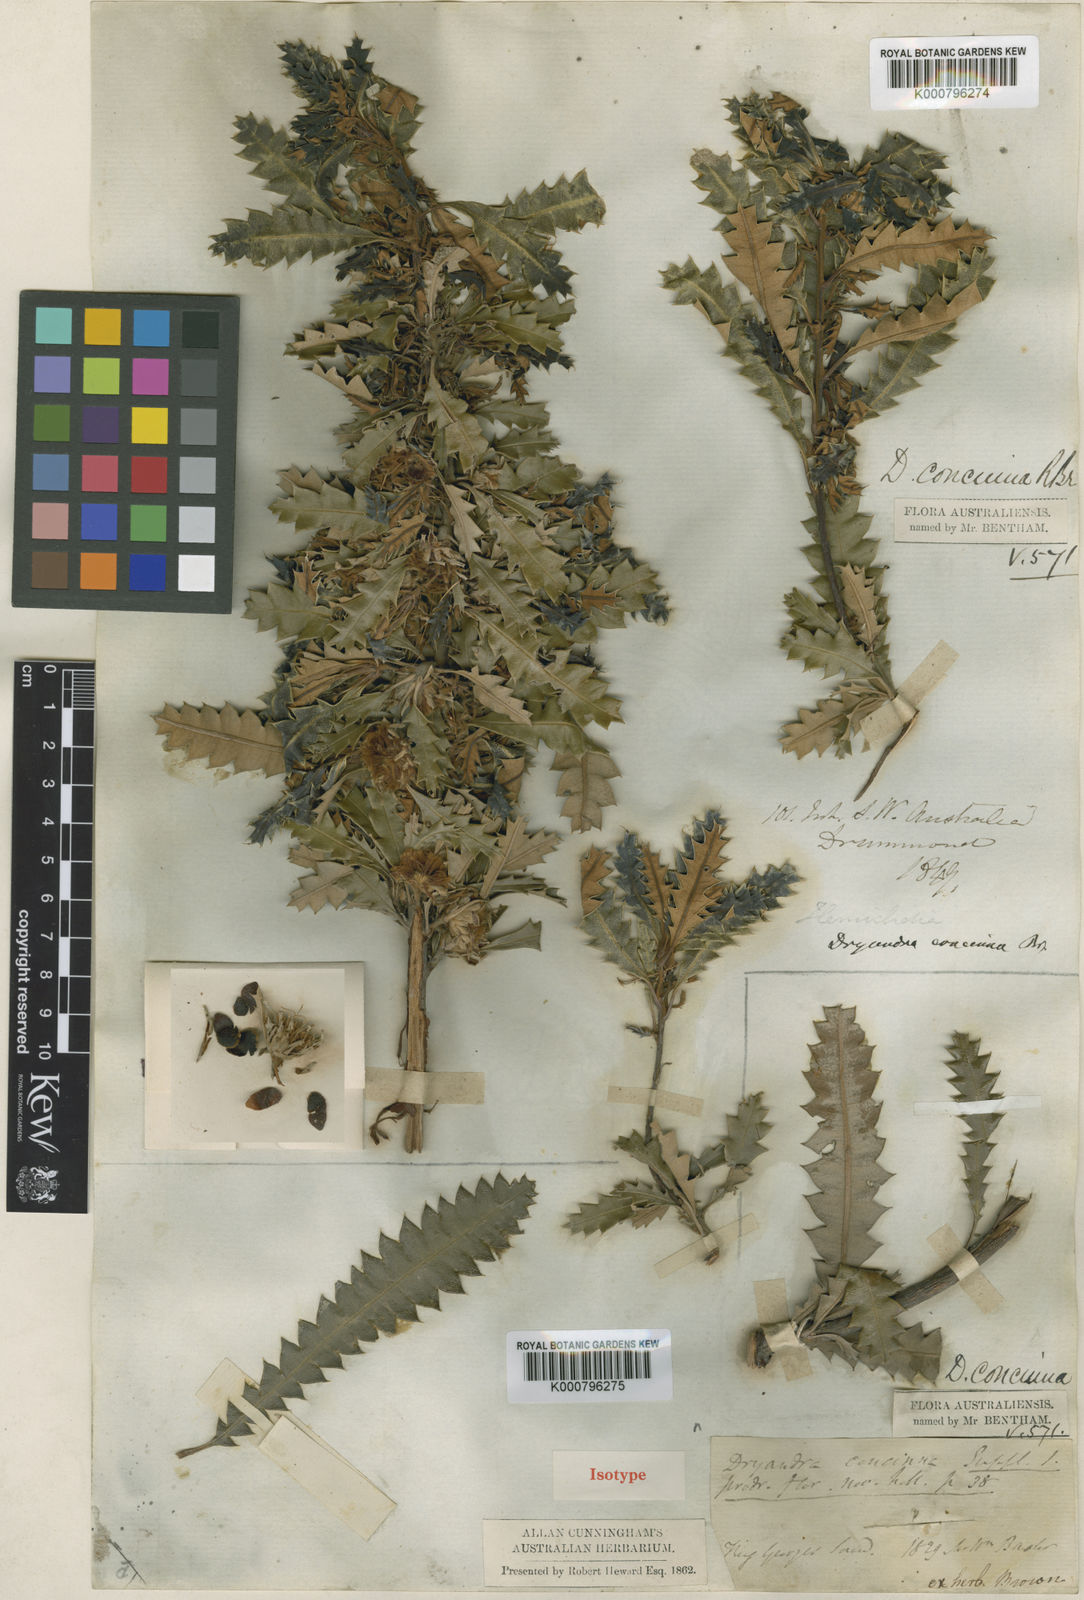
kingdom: Plantae
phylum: Tracheophyta
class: Magnoliopsida
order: Proteales
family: Proteaceae
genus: Banksia
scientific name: Banksia concinna
